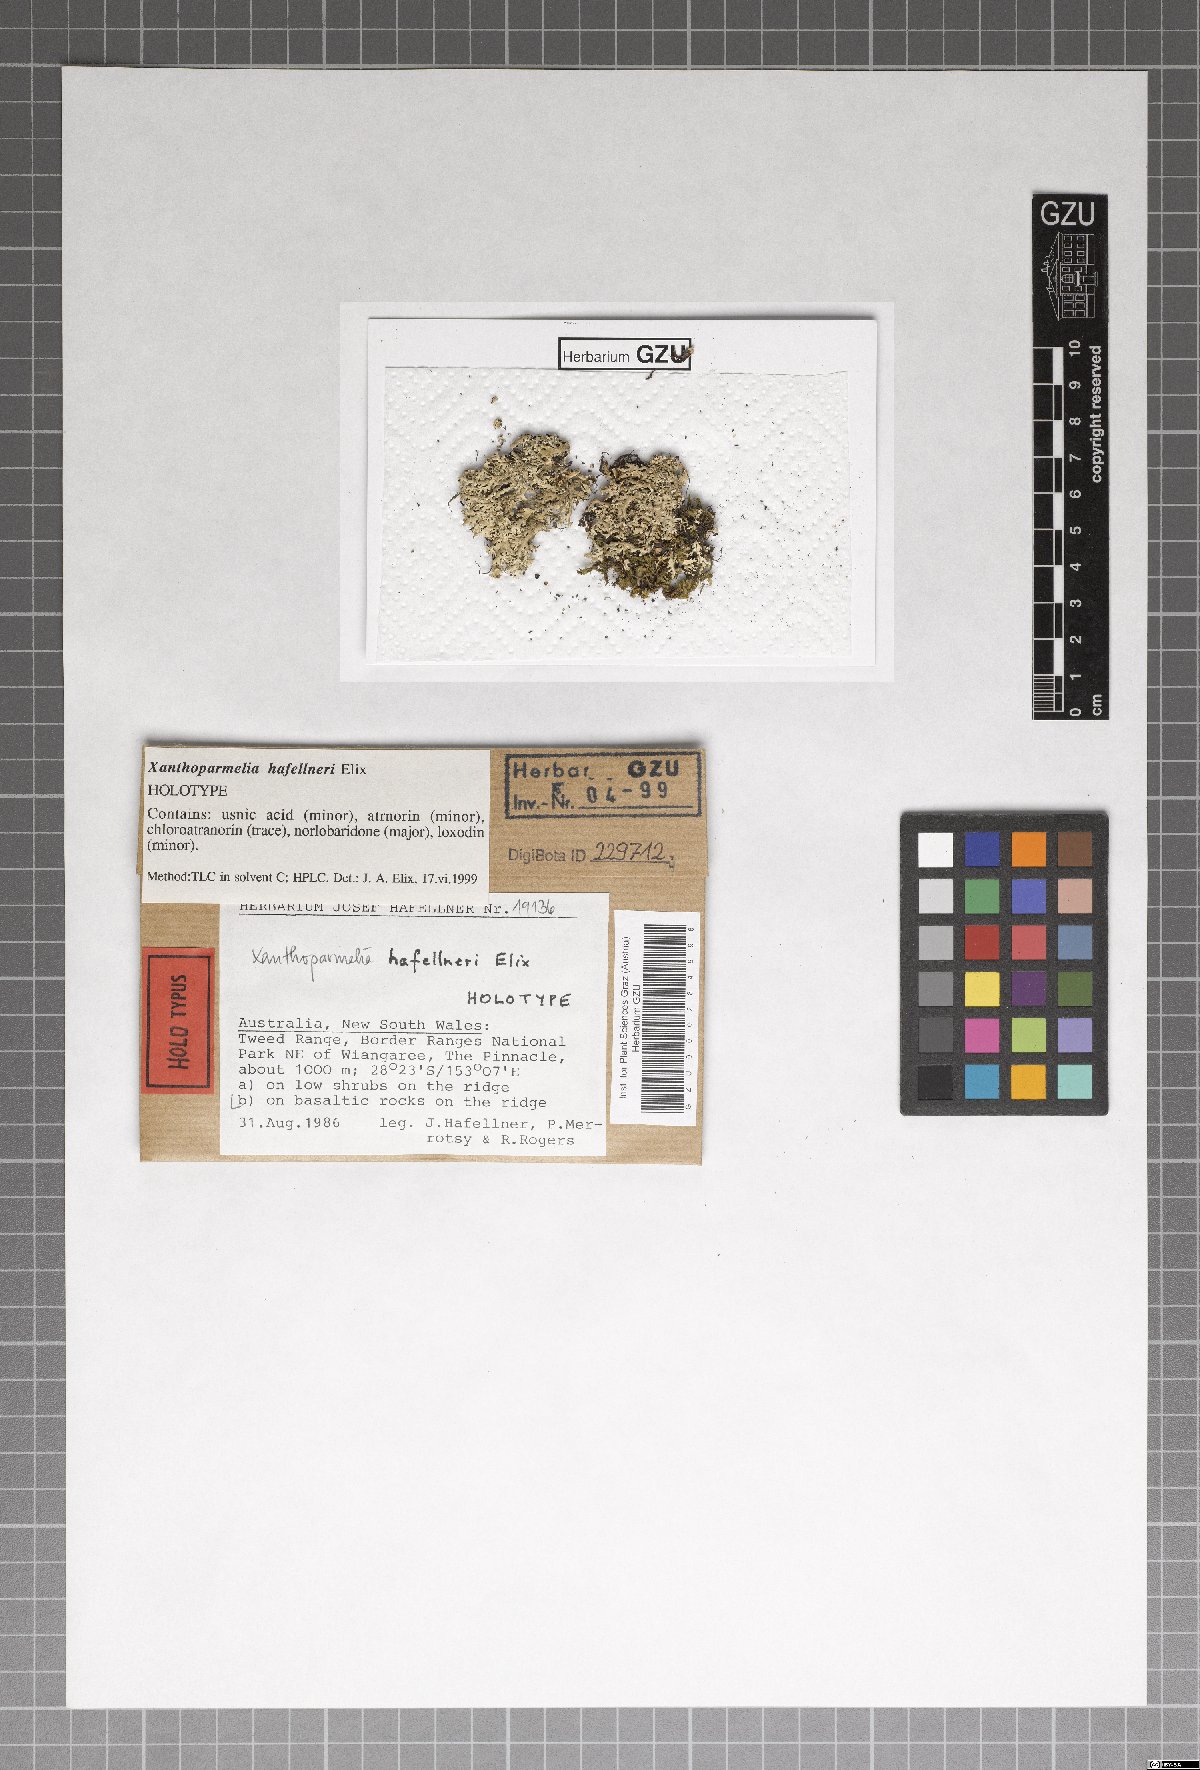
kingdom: Fungi
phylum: Ascomycota
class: Lecanoromycetes
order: Lecanorales
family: Parmeliaceae
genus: Xanthoparmelia
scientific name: Xanthoparmelia hafellneri
